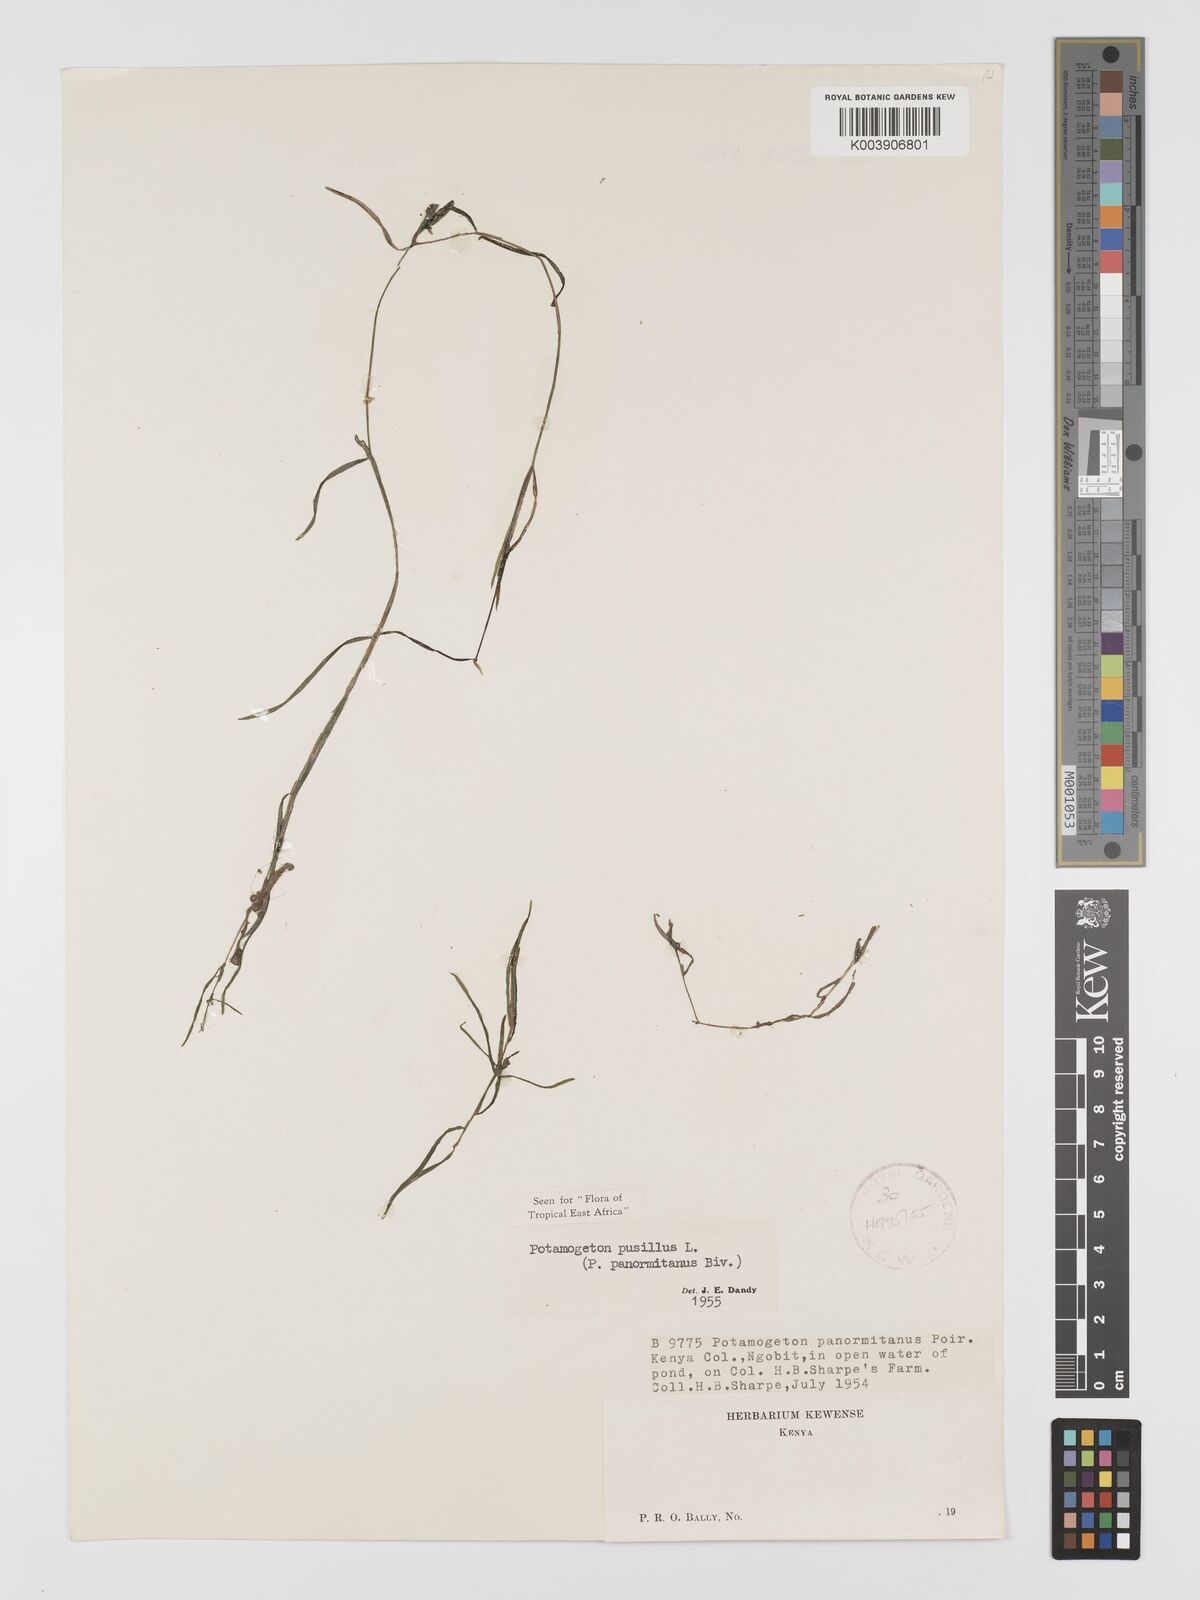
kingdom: Plantae
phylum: Tracheophyta
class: Liliopsida
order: Alismatales
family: Potamogetonaceae
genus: Potamogeton
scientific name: Potamogeton pusillus
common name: Lesser pondweed
